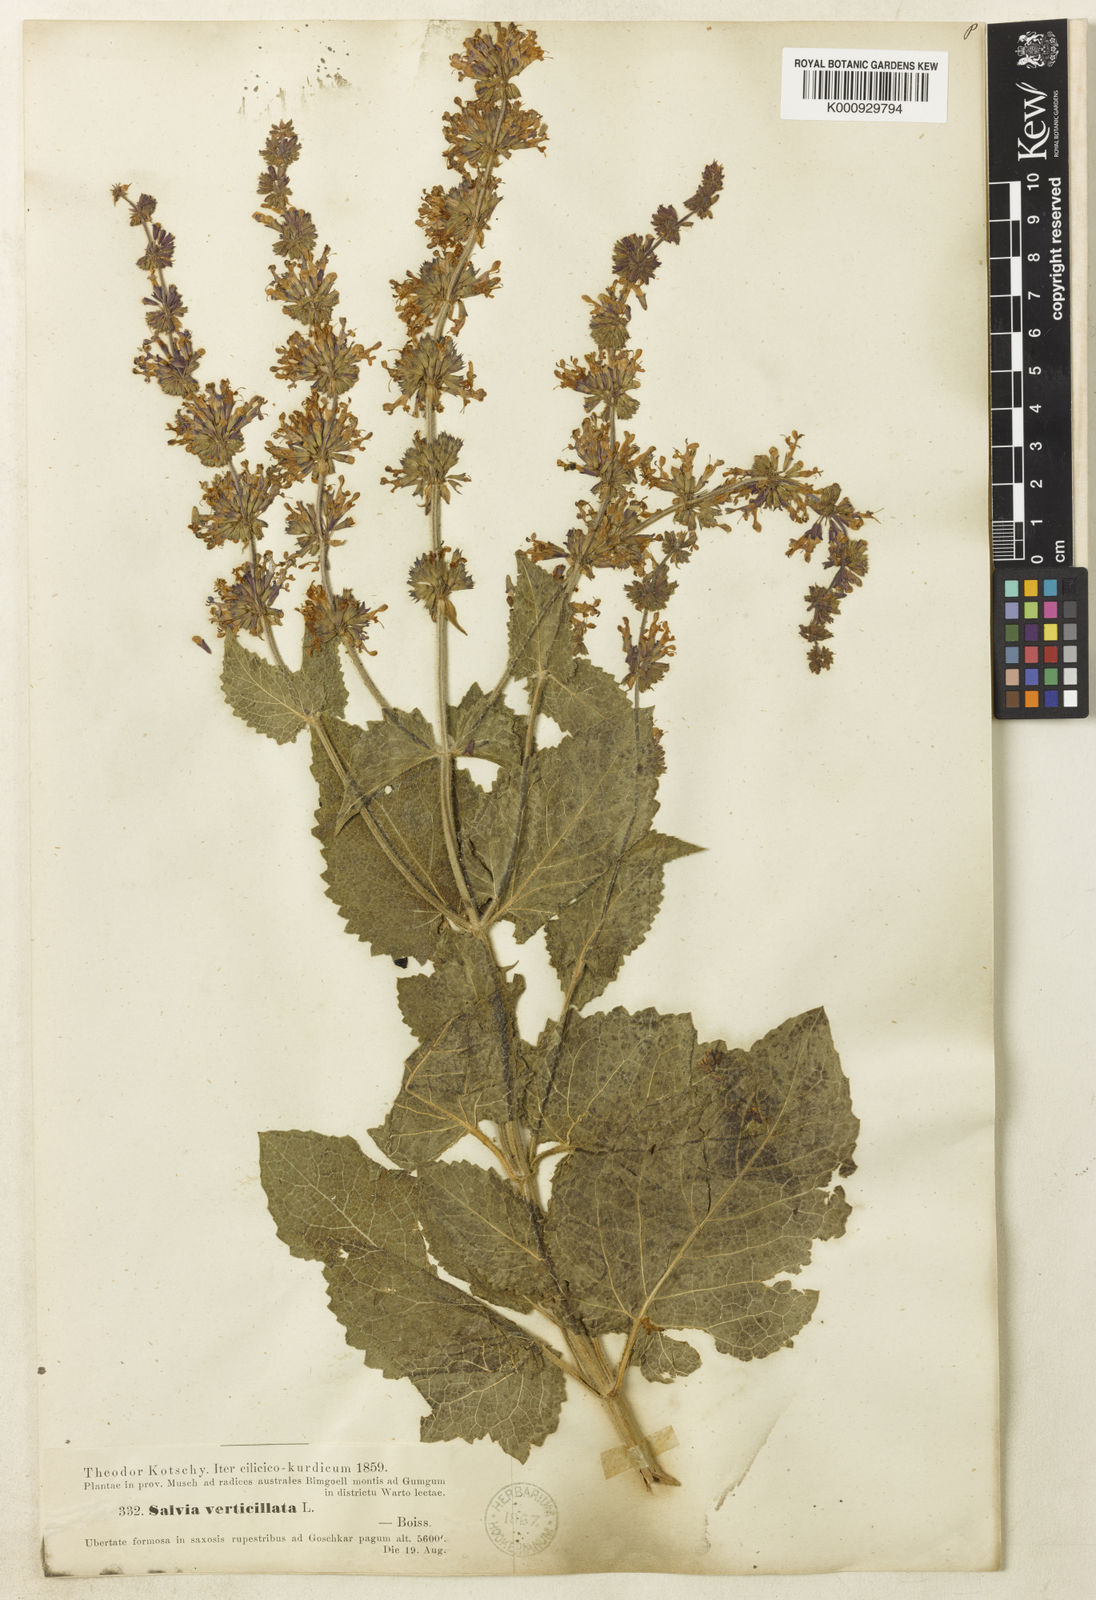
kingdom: Plantae
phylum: Tracheophyta
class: Magnoliopsida
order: Lamiales
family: Lamiaceae
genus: Salvia
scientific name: Salvia verticillata
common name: Whorled clary
